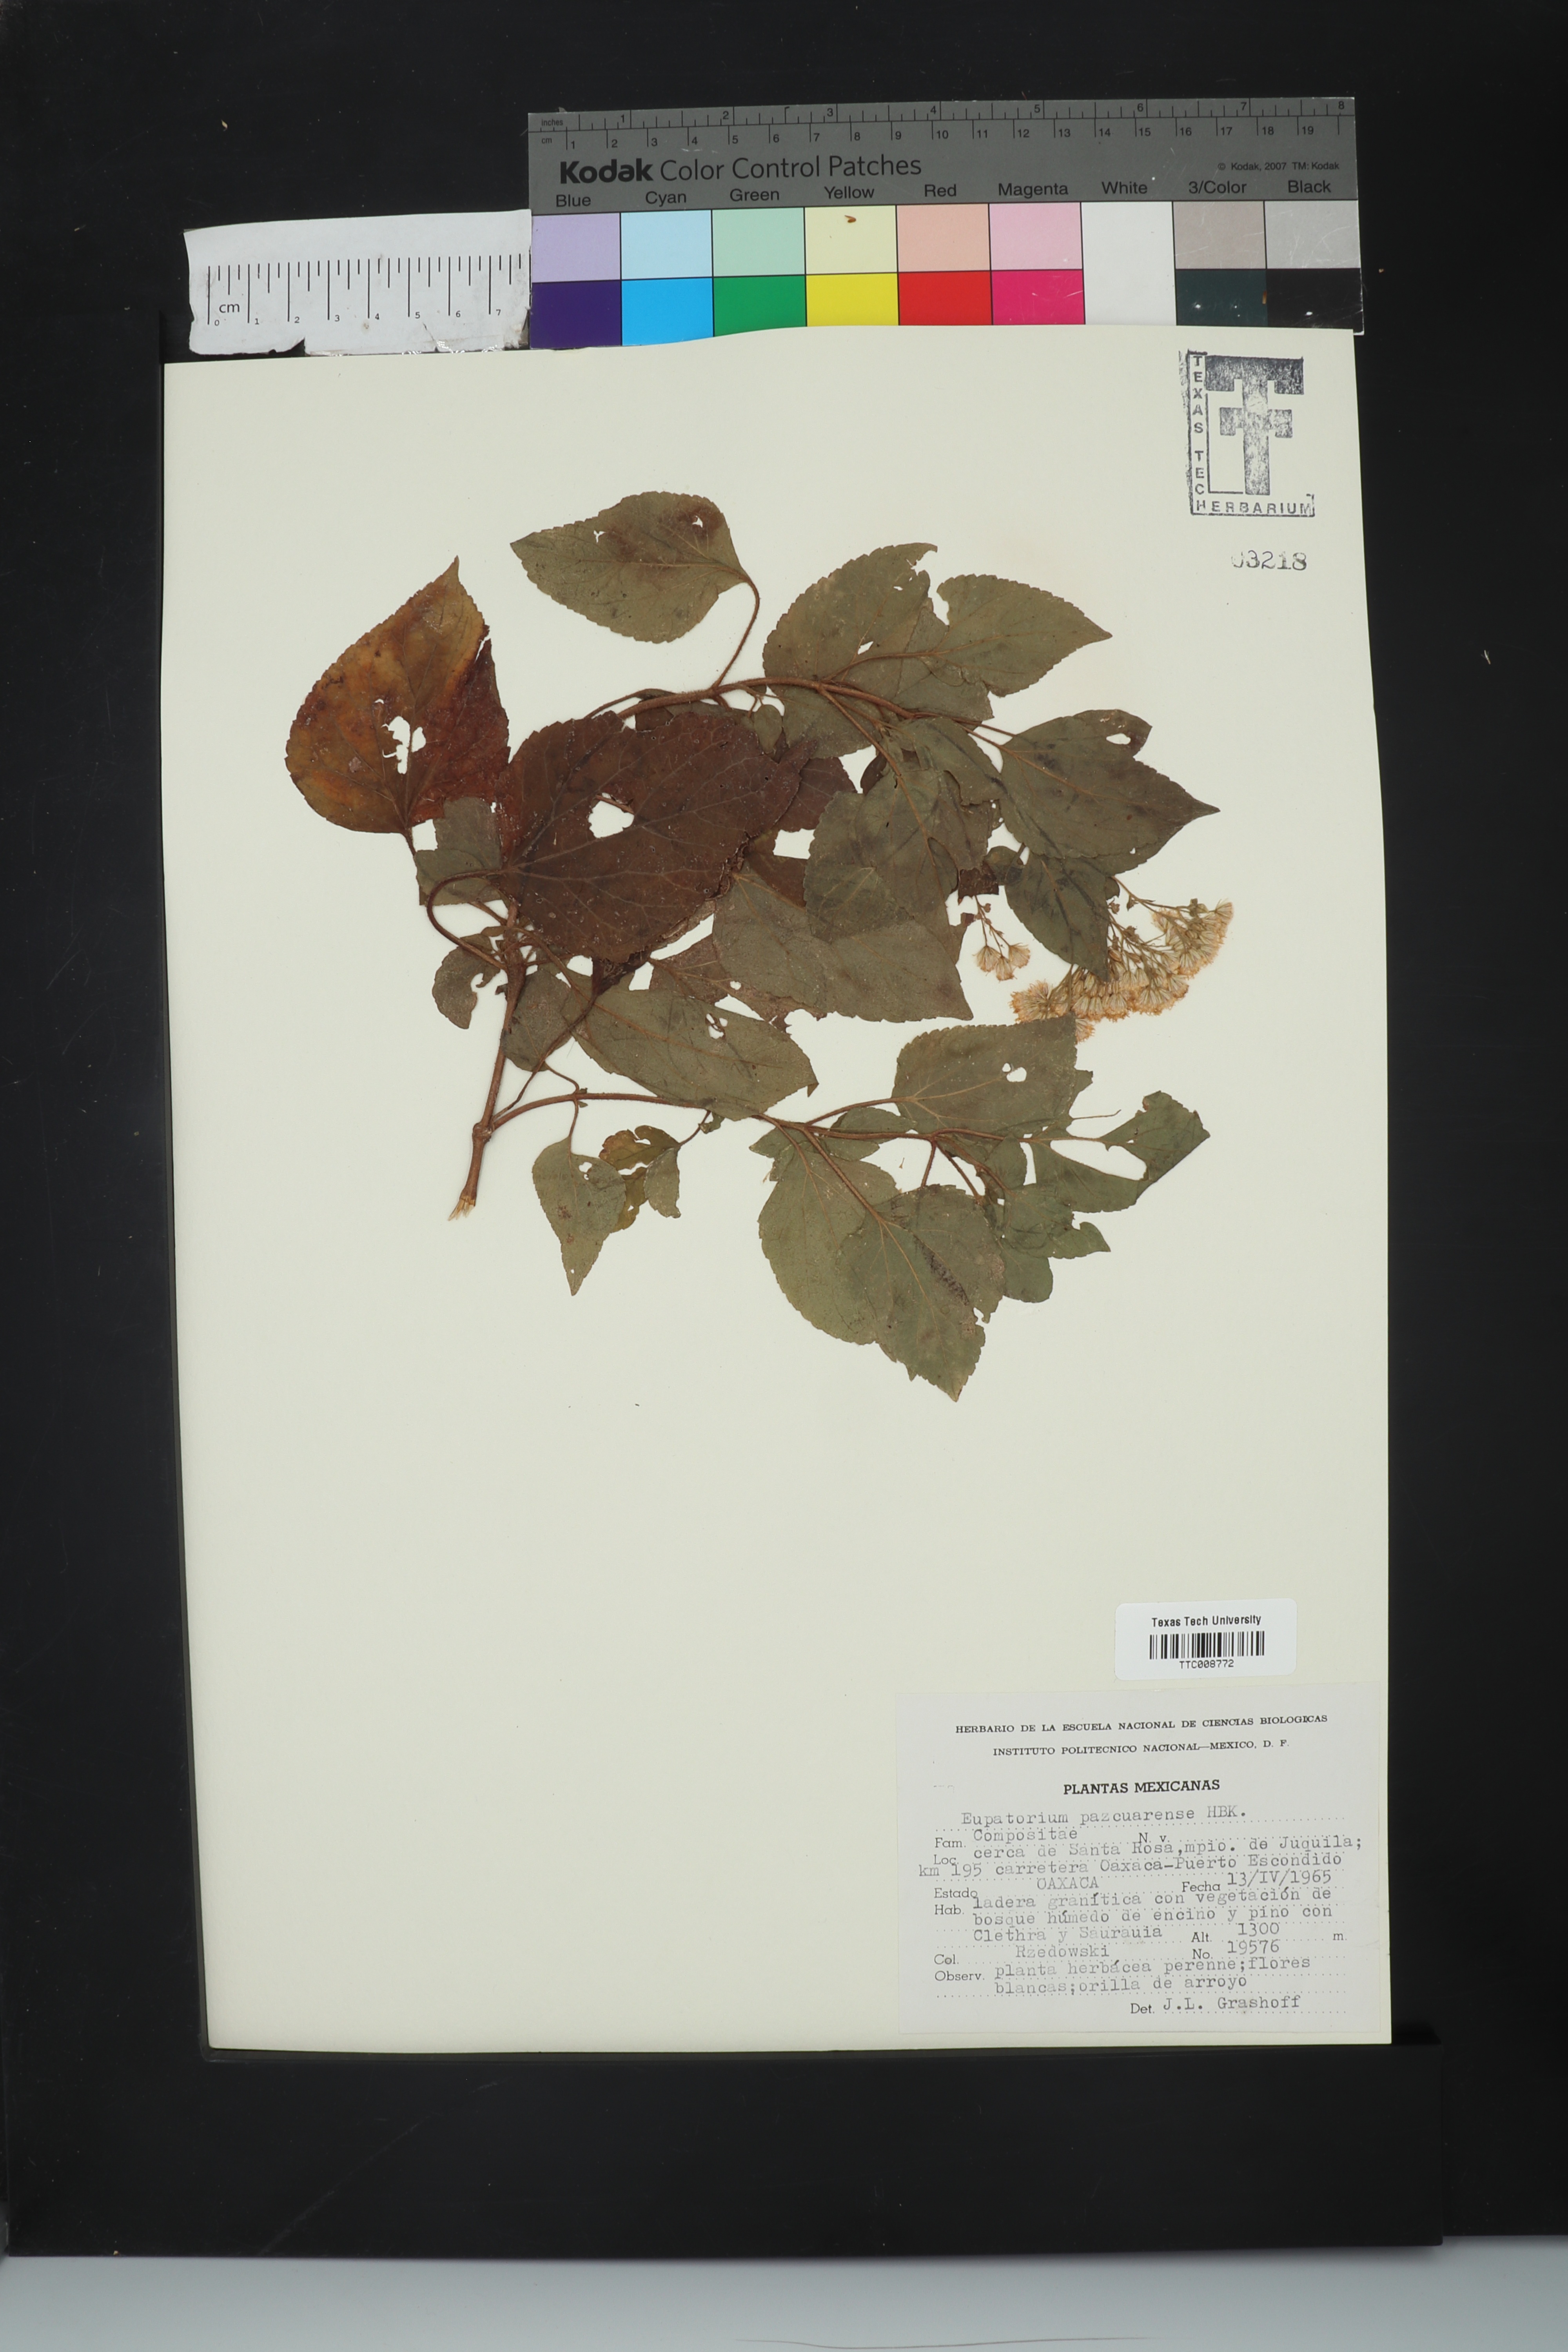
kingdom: Plantae
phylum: Tracheophyta
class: Magnoliopsida
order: Asterales
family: Asteraceae
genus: Ageratina
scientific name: Ageratina pazcuarensis
